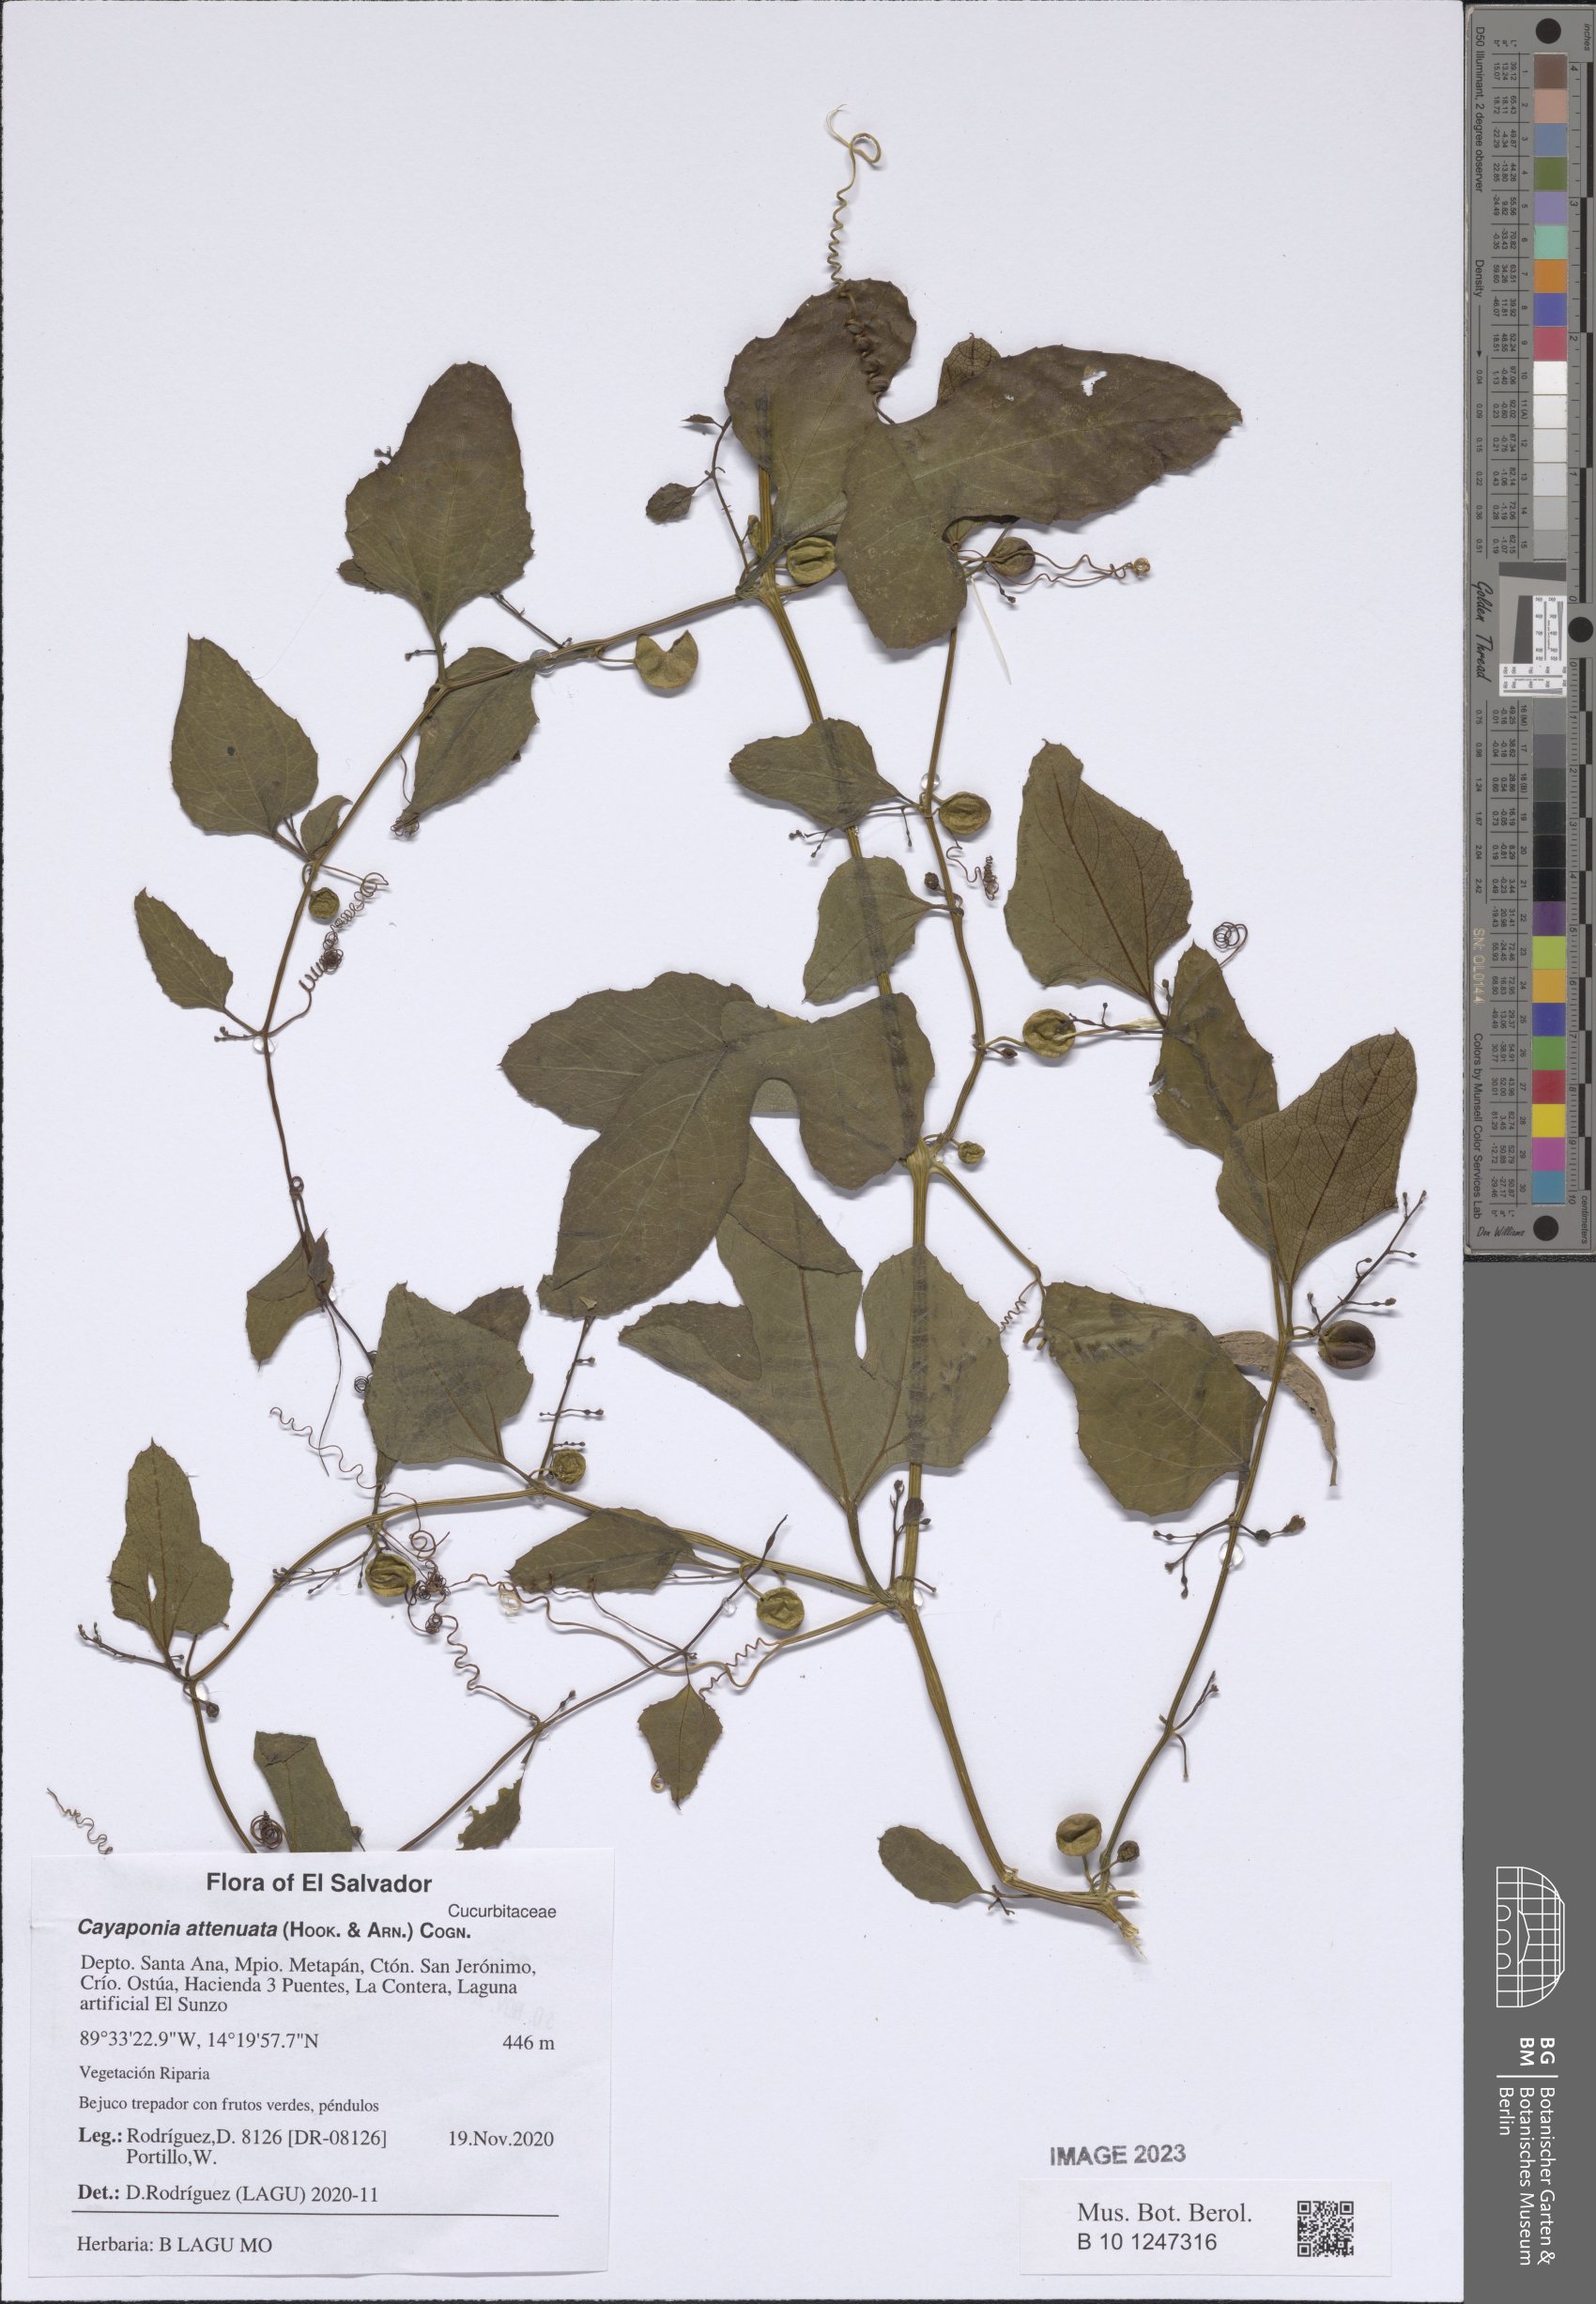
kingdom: Plantae
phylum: Tracheophyta
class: Magnoliopsida
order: Cucurbitales
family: Cucurbitaceae
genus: Cayaponia
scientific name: Cayaponia attenuata
